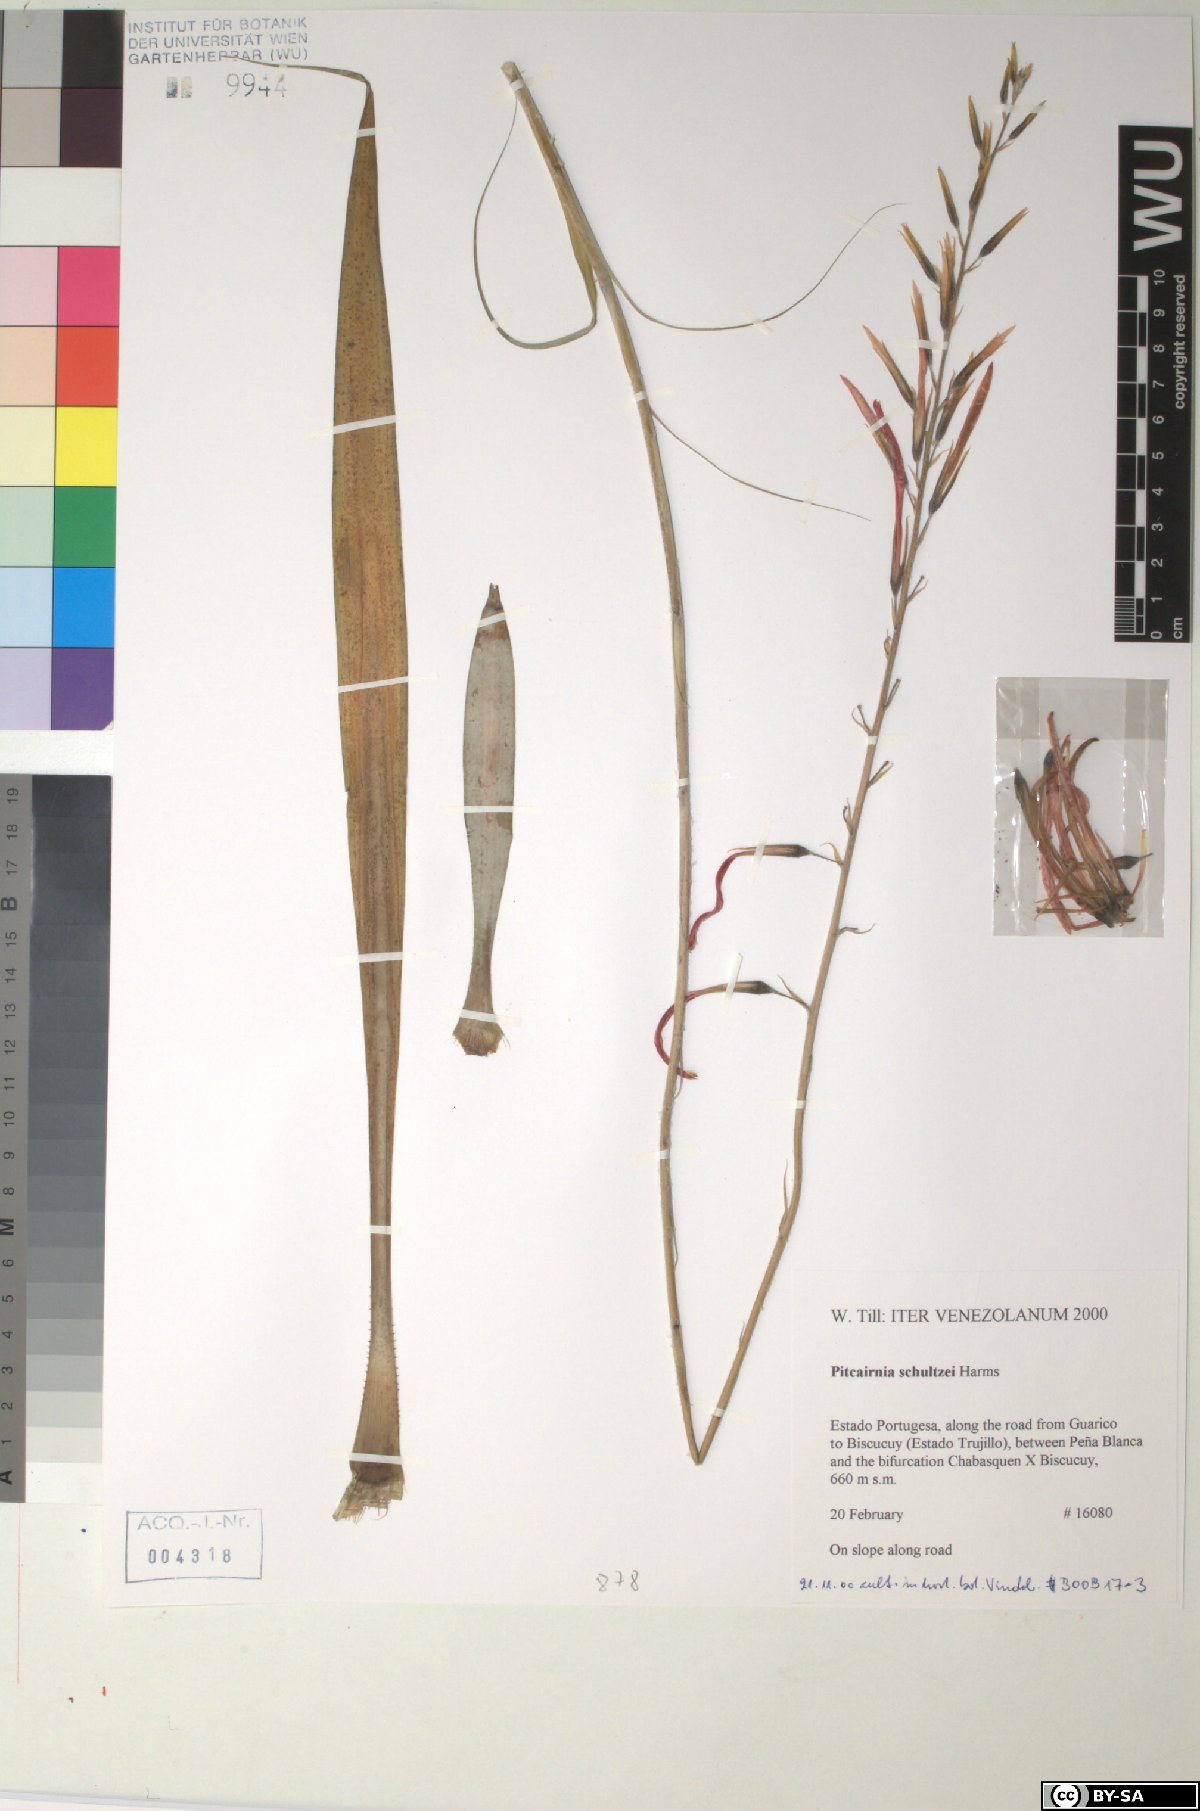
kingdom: Plantae
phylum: Tracheophyta
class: Liliopsida
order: Poales
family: Bromeliaceae
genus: Pitcairnia
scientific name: Pitcairnia schultzei
